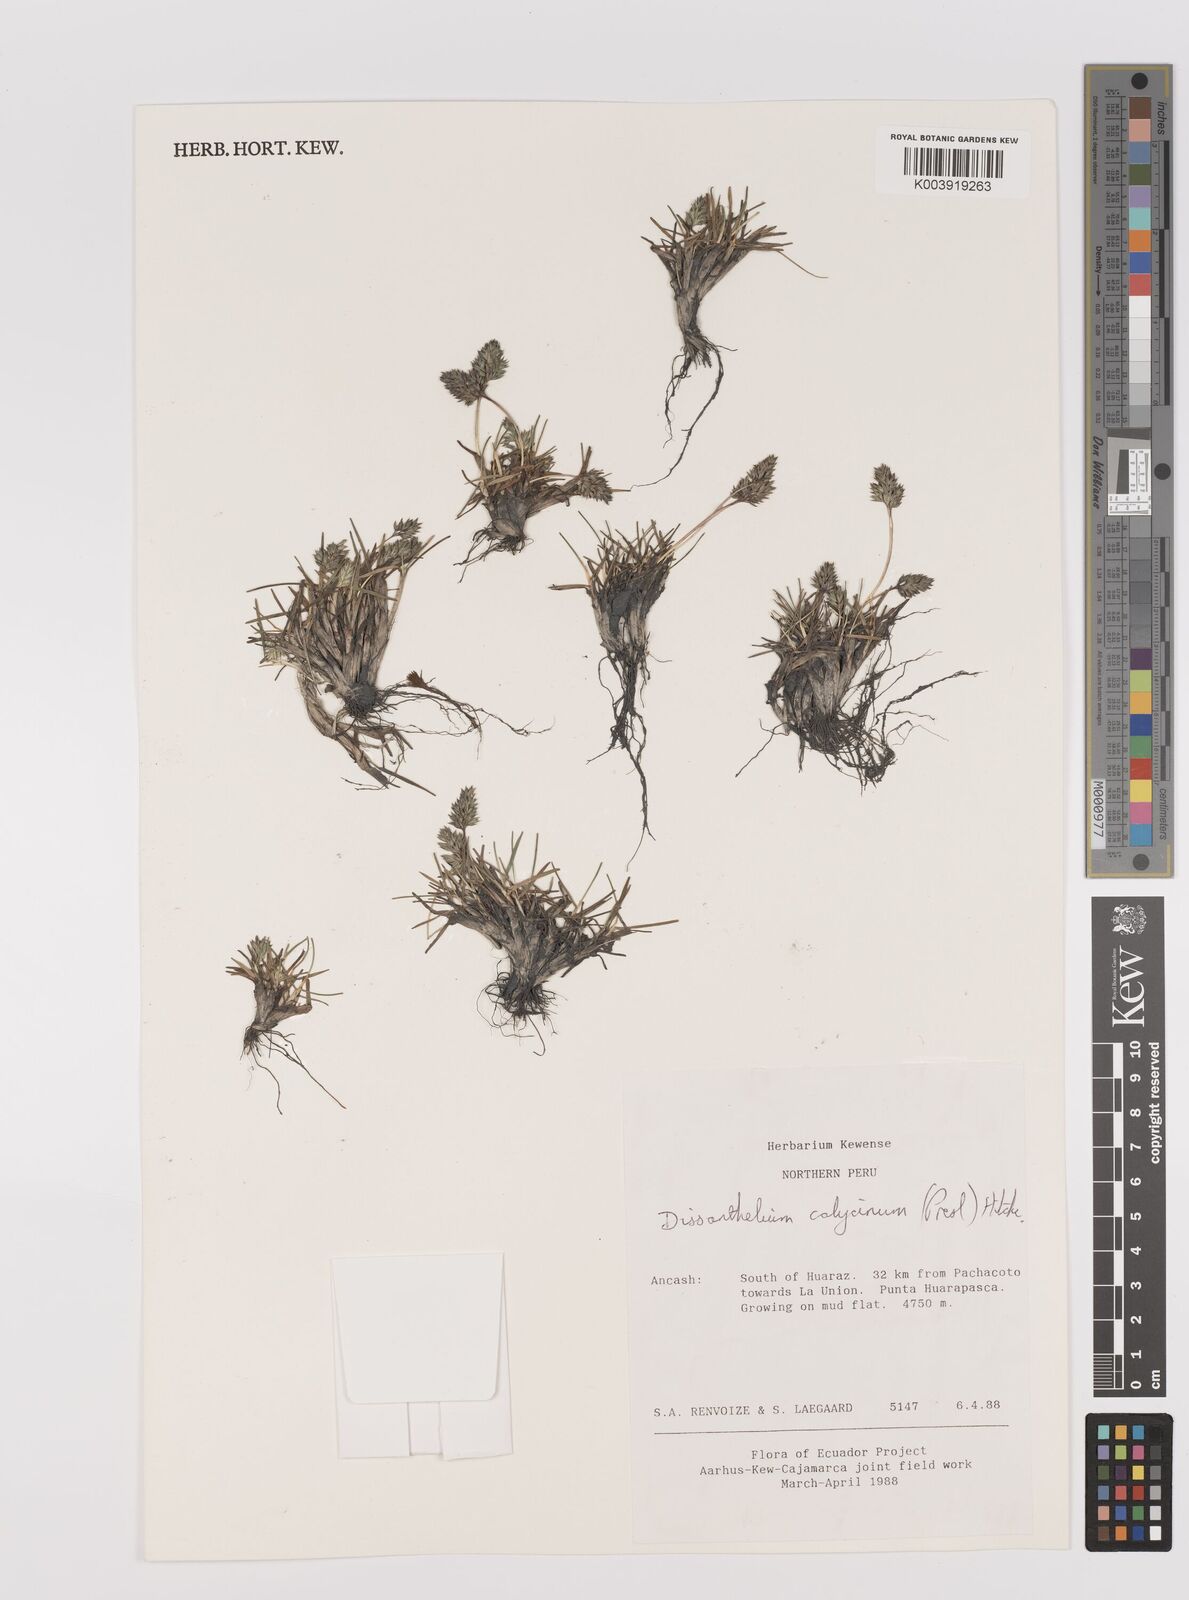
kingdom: Plantae
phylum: Tracheophyta
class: Liliopsida
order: Poales
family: Poaceae
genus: Poa
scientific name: Poa calycina
